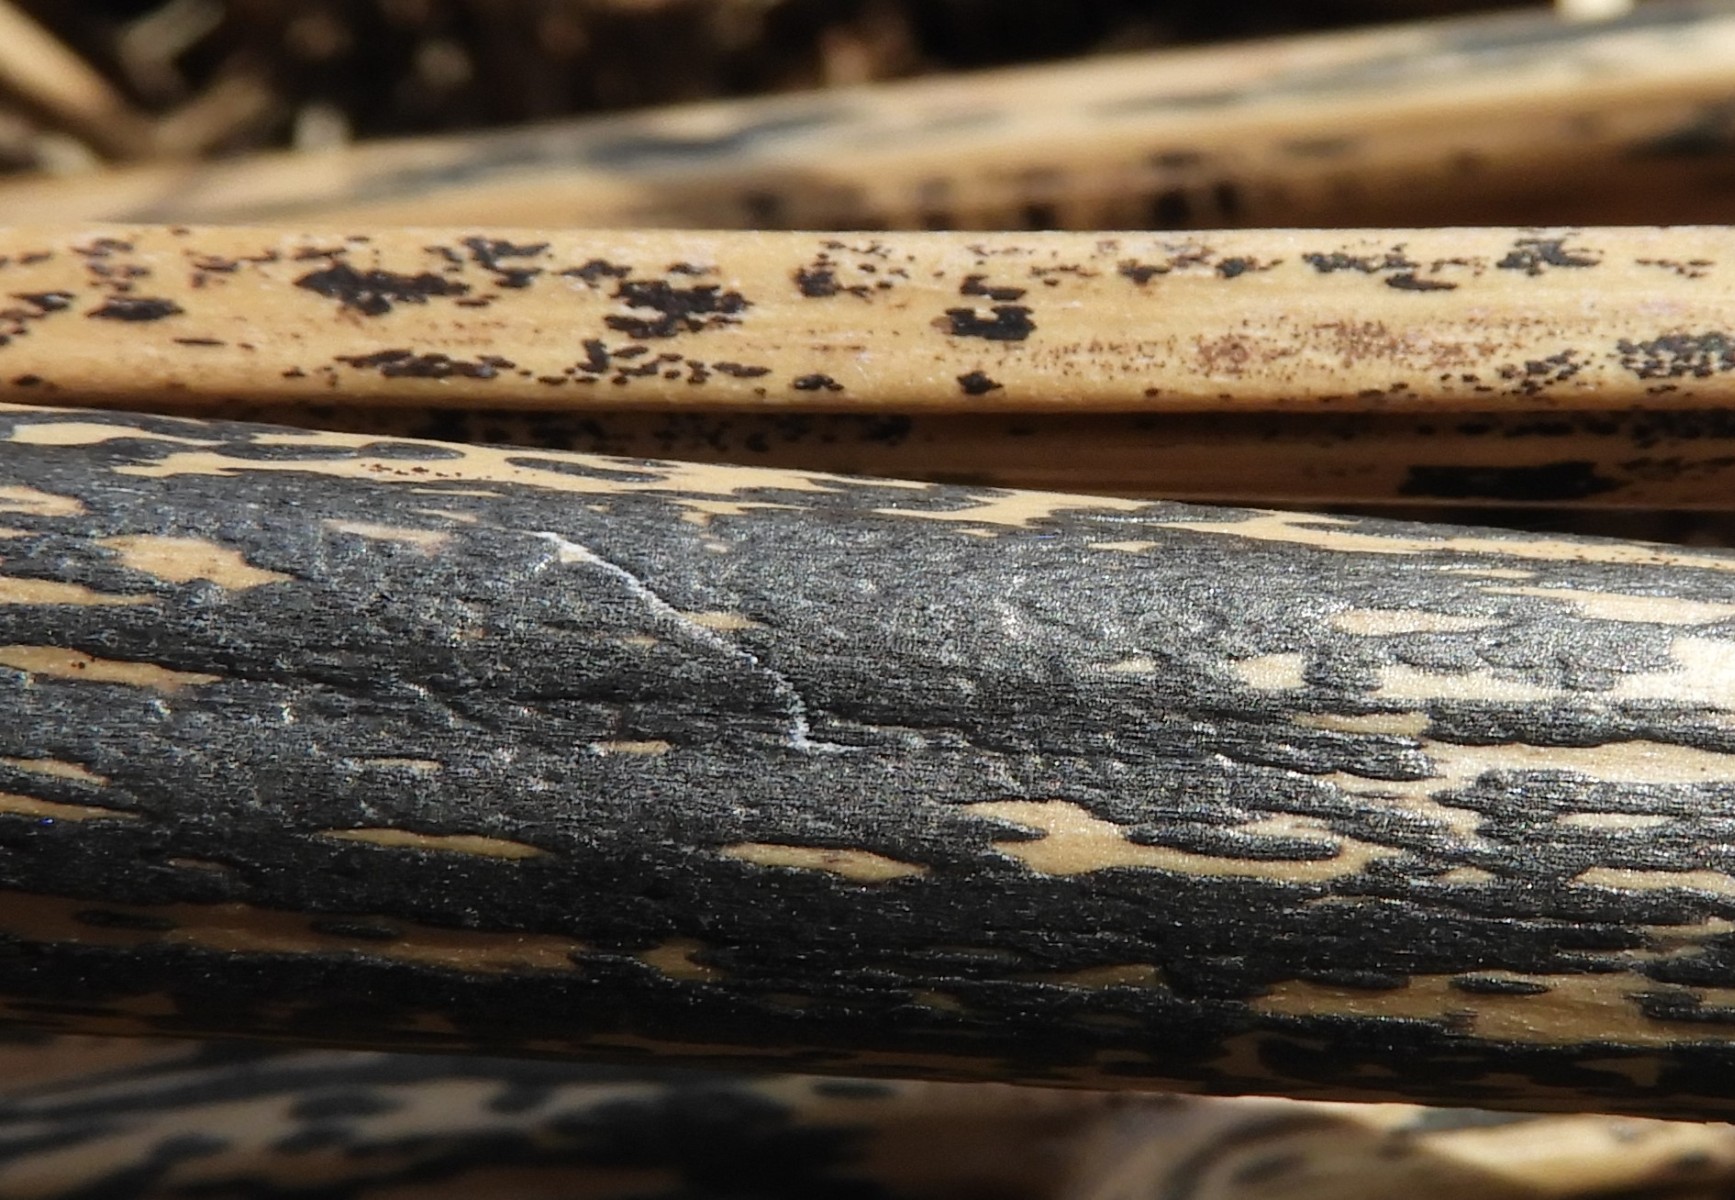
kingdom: Fungi
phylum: Ascomycota
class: Dothideomycetes
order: Pleosporales
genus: Rhopographus
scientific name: Rhopographus filicinus
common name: Bracken map
